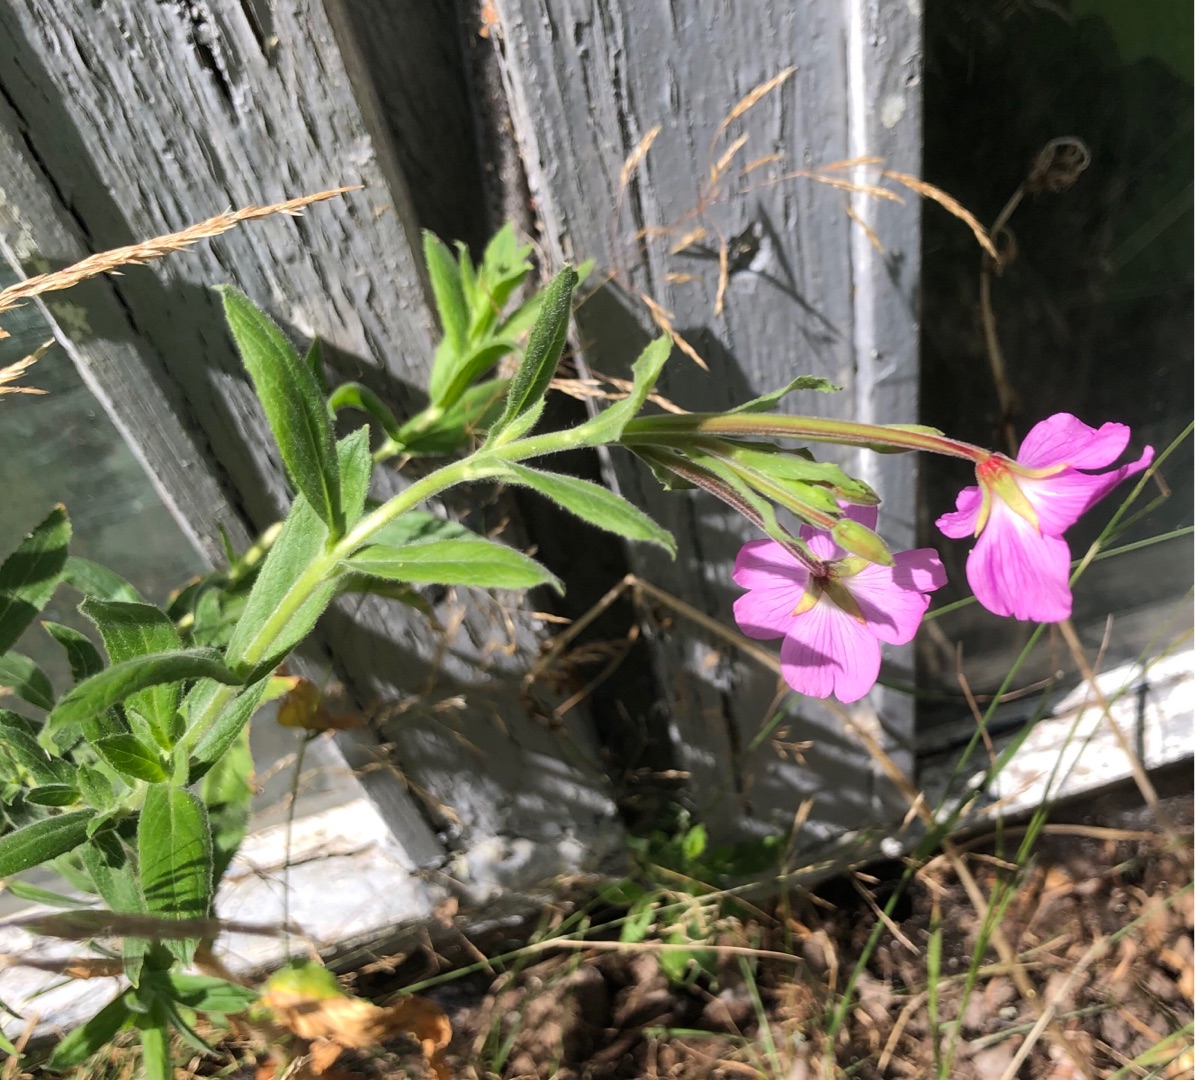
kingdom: Plantae
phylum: Tracheophyta
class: Magnoliopsida
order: Myrtales
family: Onagraceae
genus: Epilobium
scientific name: Epilobium hirsutum
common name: Lådden dueurt
